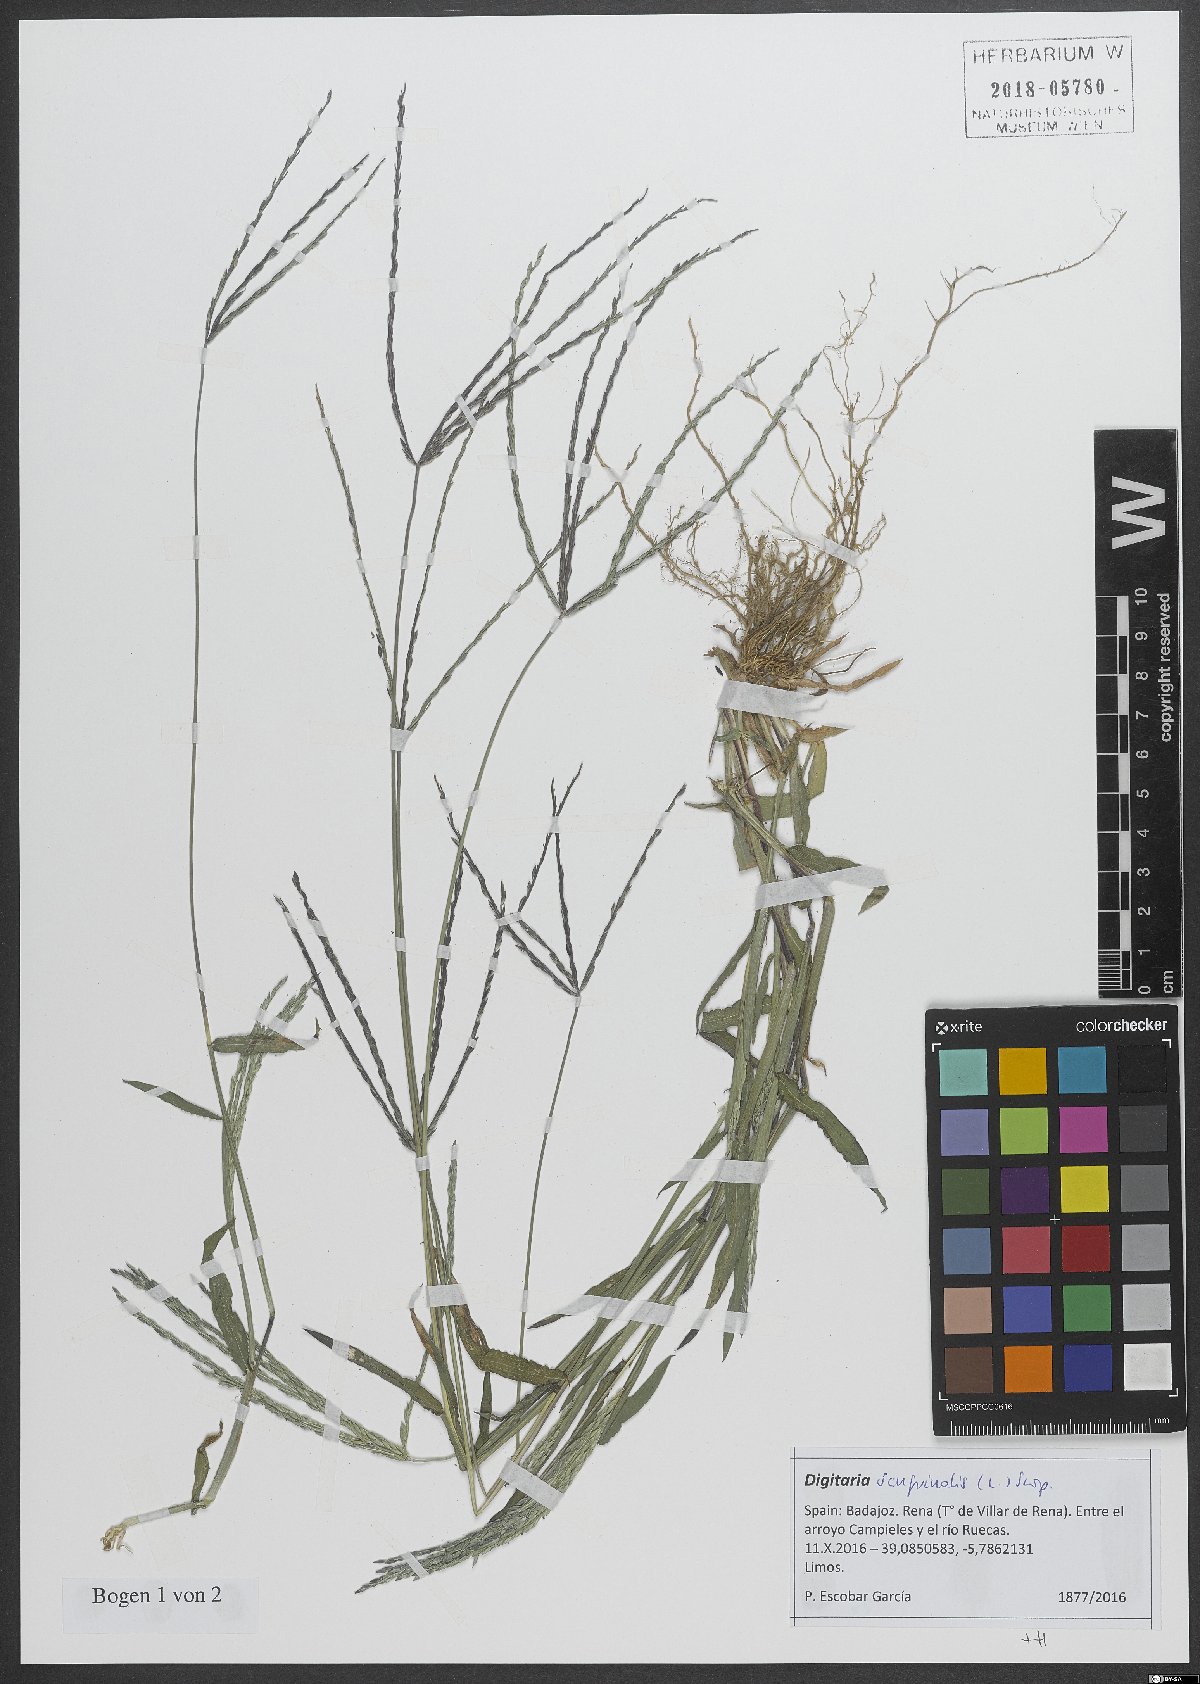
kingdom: Plantae
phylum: Tracheophyta
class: Liliopsida
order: Poales
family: Poaceae
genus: Digitaria
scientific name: Digitaria sanguinalis
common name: Hairy crabgrass
